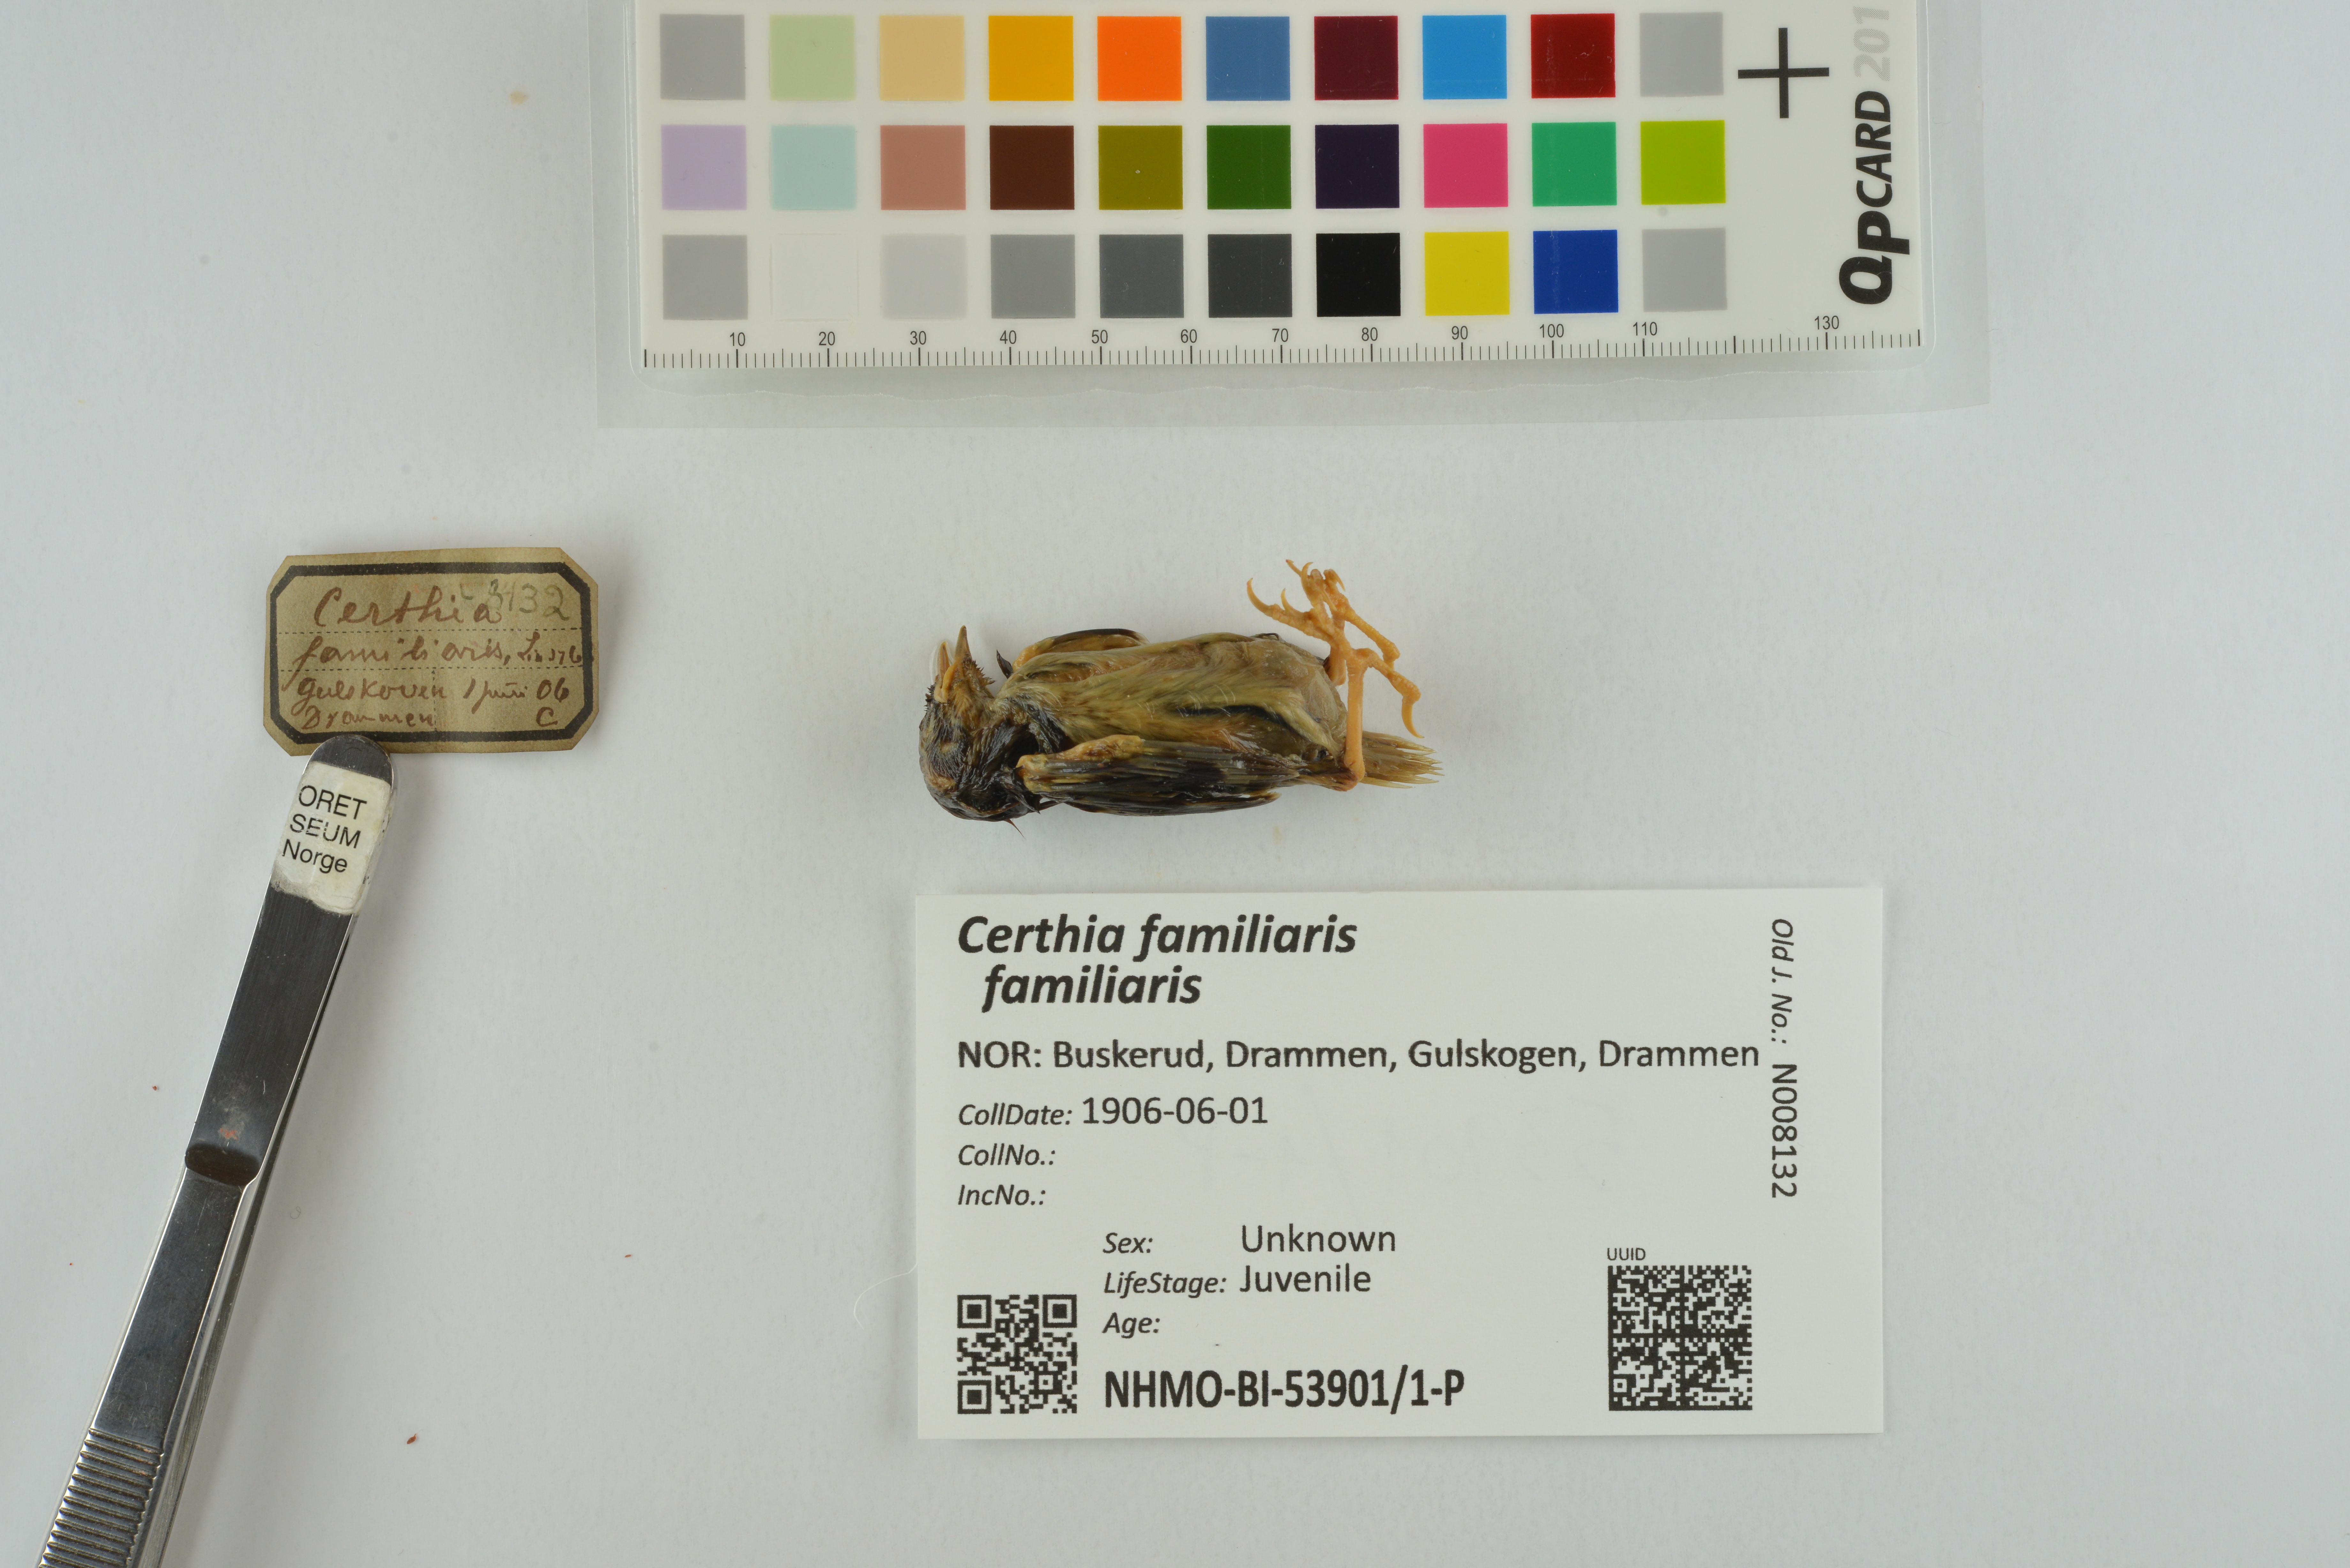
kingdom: Animalia
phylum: Chordata
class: Aves
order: Passeriformes
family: Certhiidae
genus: Certhia
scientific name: Certhia familiaris
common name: Eurasian treecreeper
